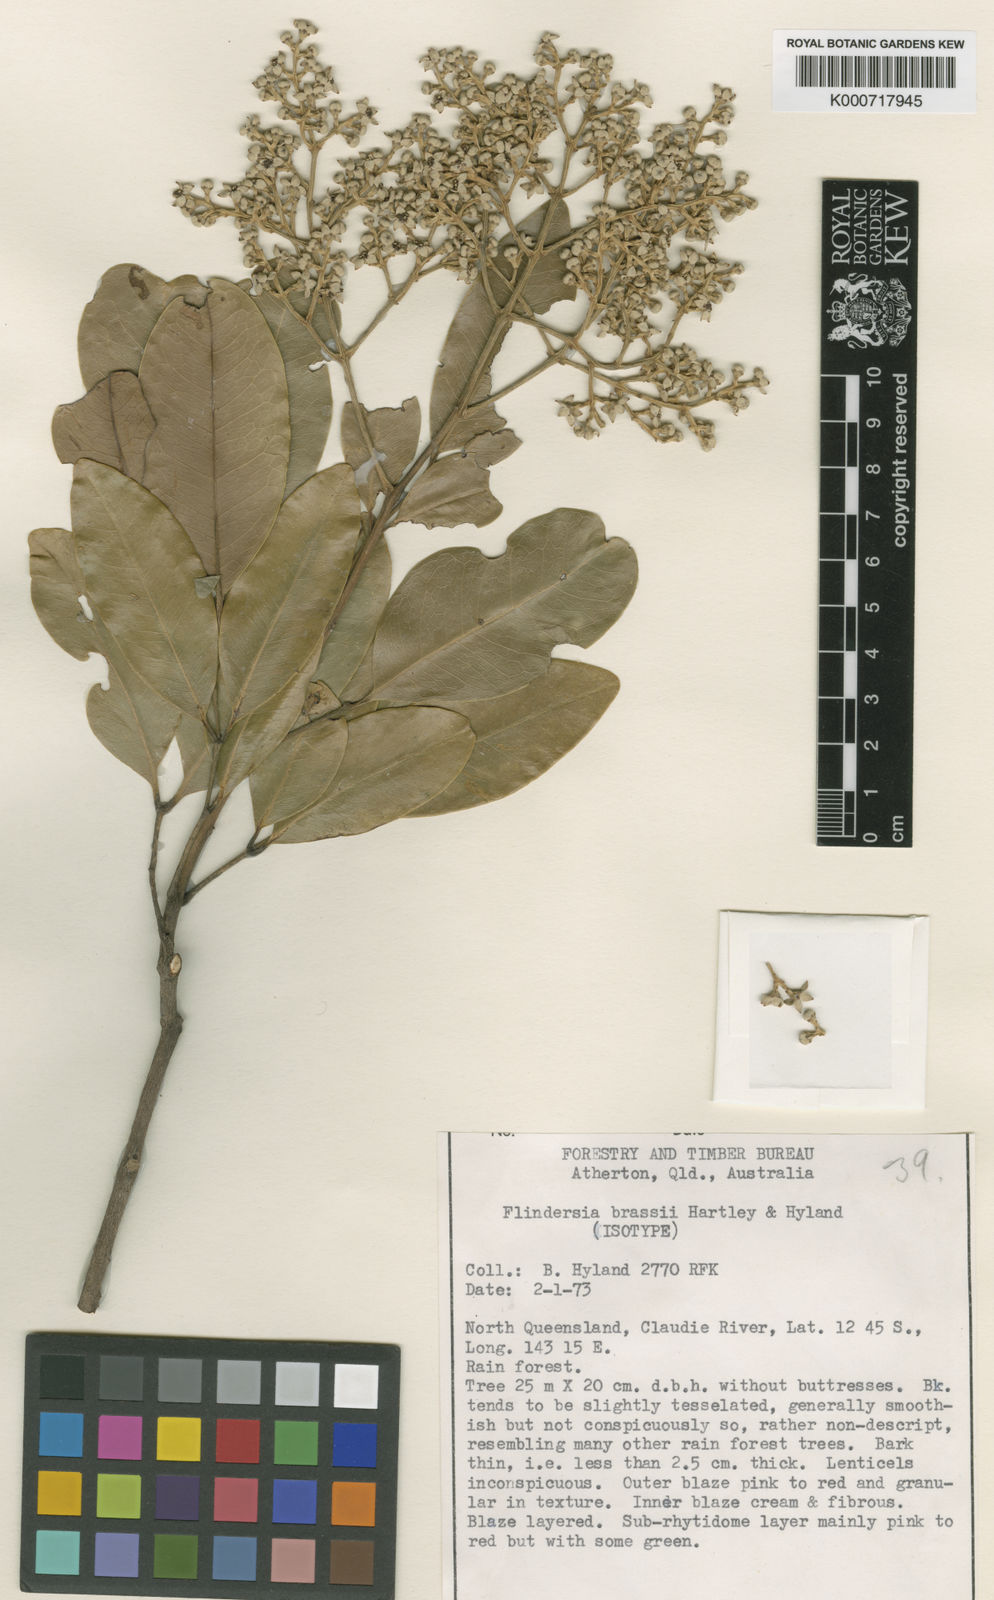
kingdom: Plantae
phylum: Tracheophyta
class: Magnoliopsida
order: Sapindales
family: Rutaceae
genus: Flindersia
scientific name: Flindersia brassii
